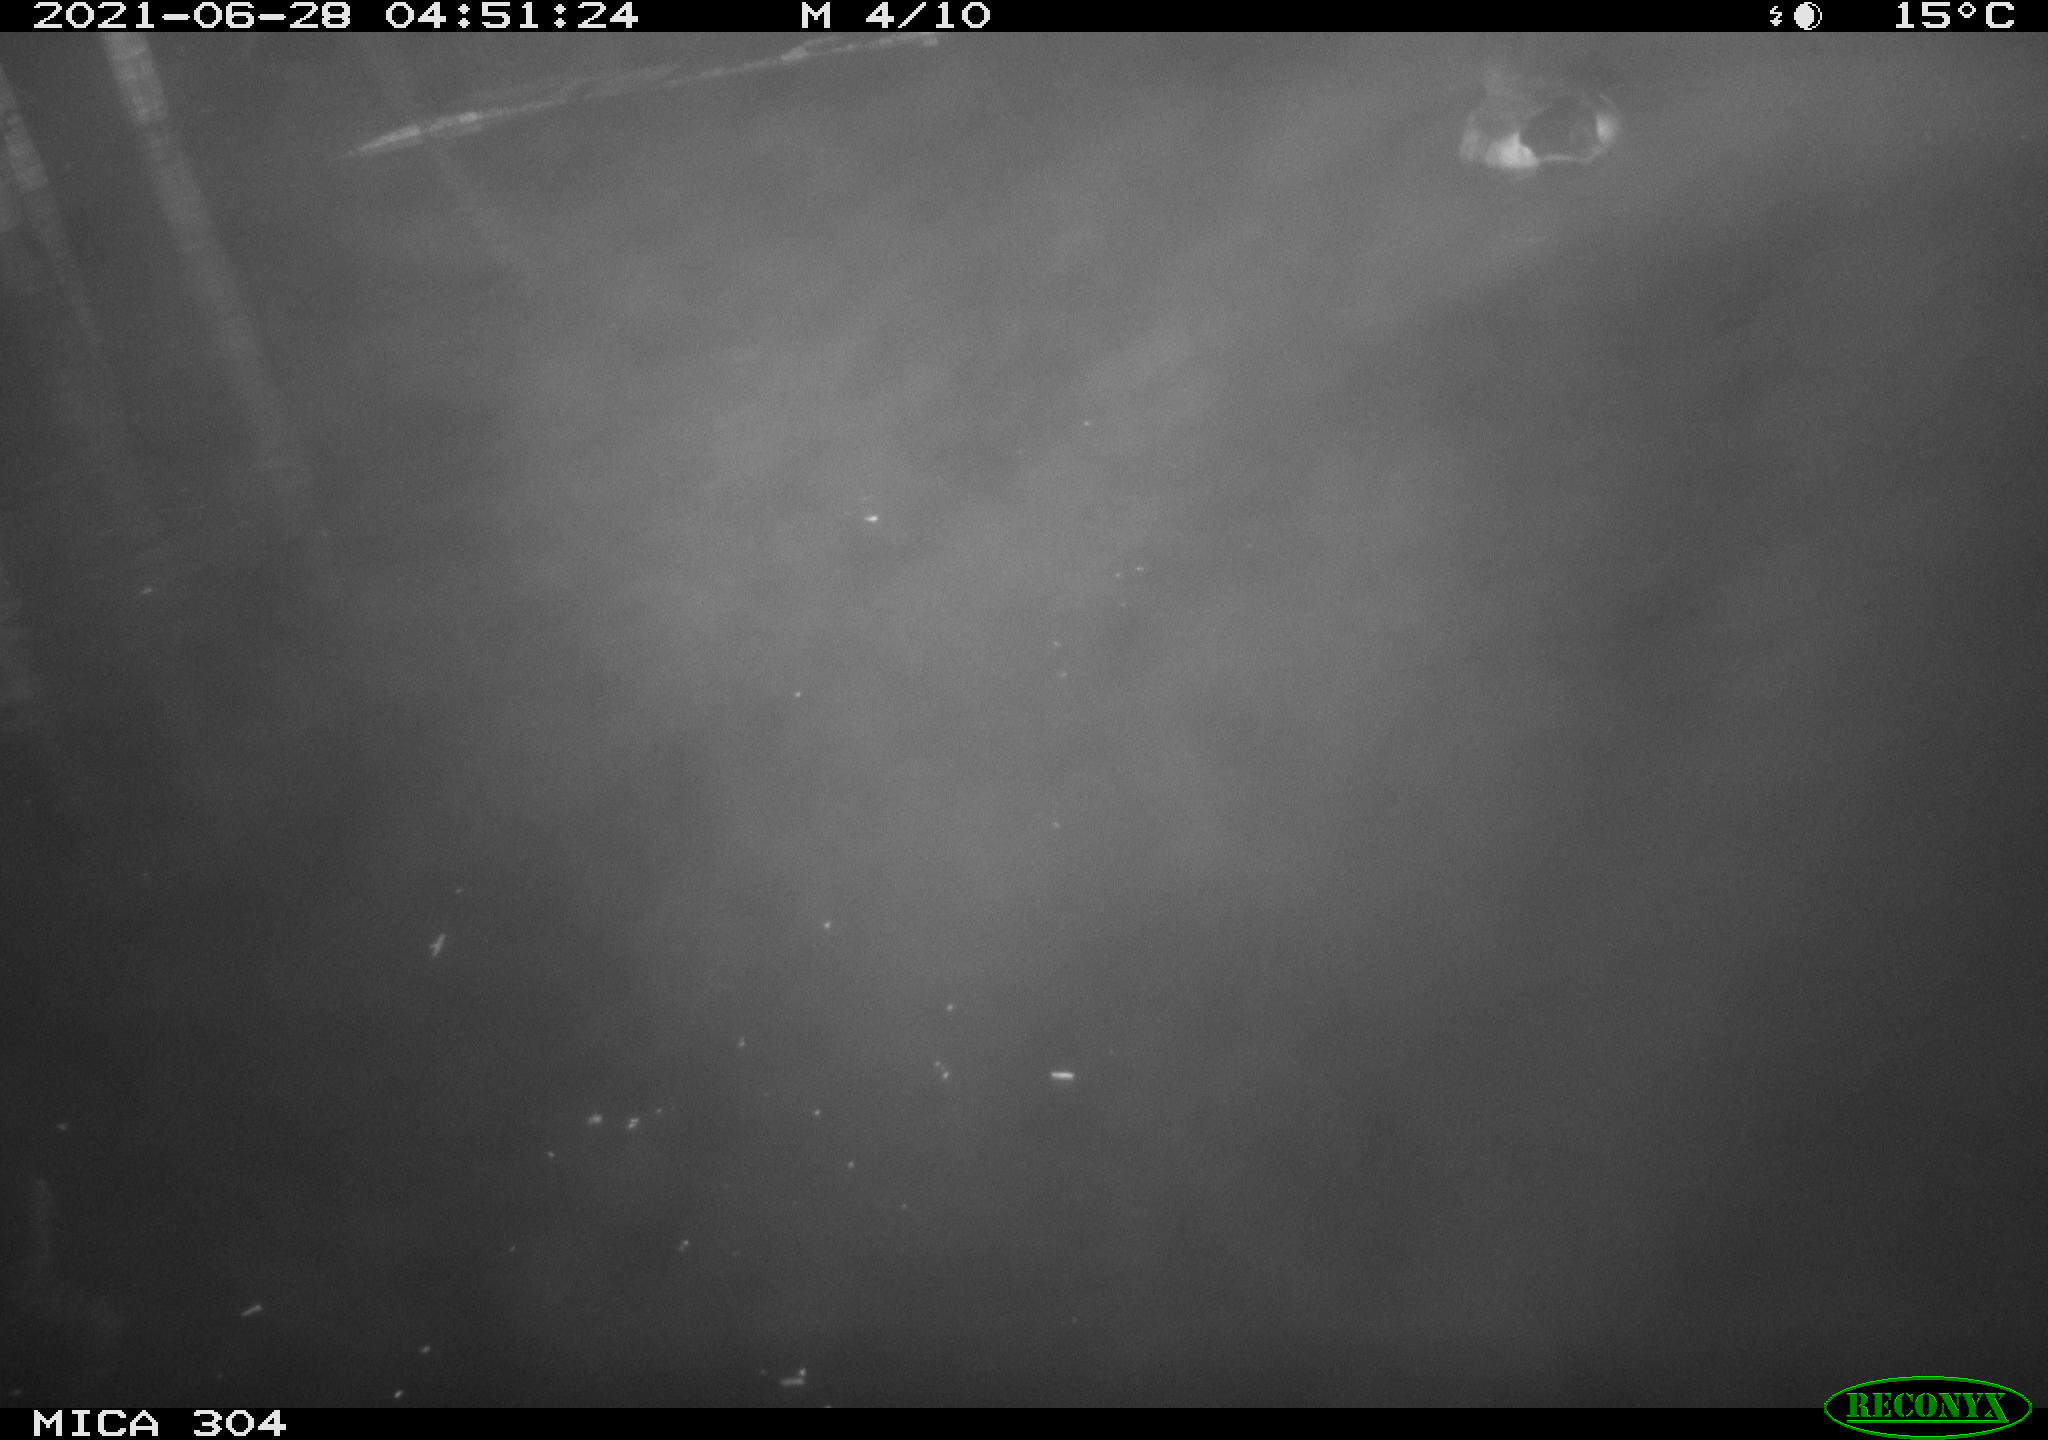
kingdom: Animalia
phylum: Chordata
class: Aves
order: Anseriformes
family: Anatidae
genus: Anas
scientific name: Anas platyrhynchos
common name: Mallard
